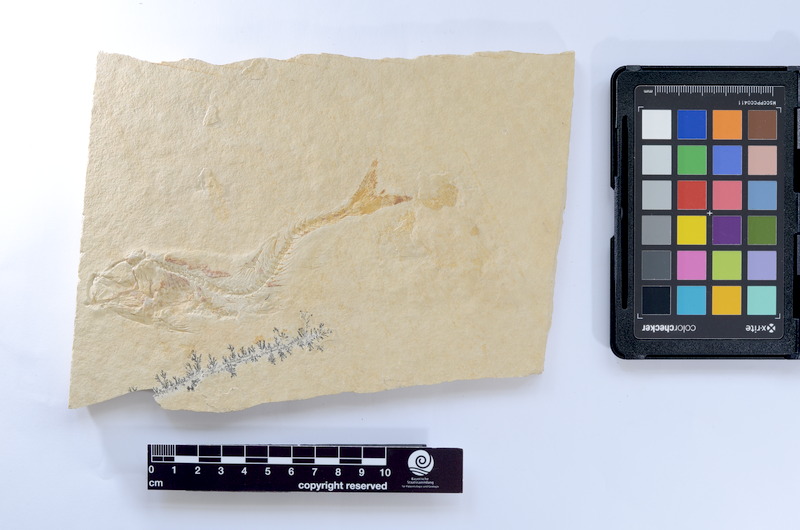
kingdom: Animalia
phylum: Chordata
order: Elopiformes
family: Anaethalionidae
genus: Anaethalion
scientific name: Anaethalion knorri
